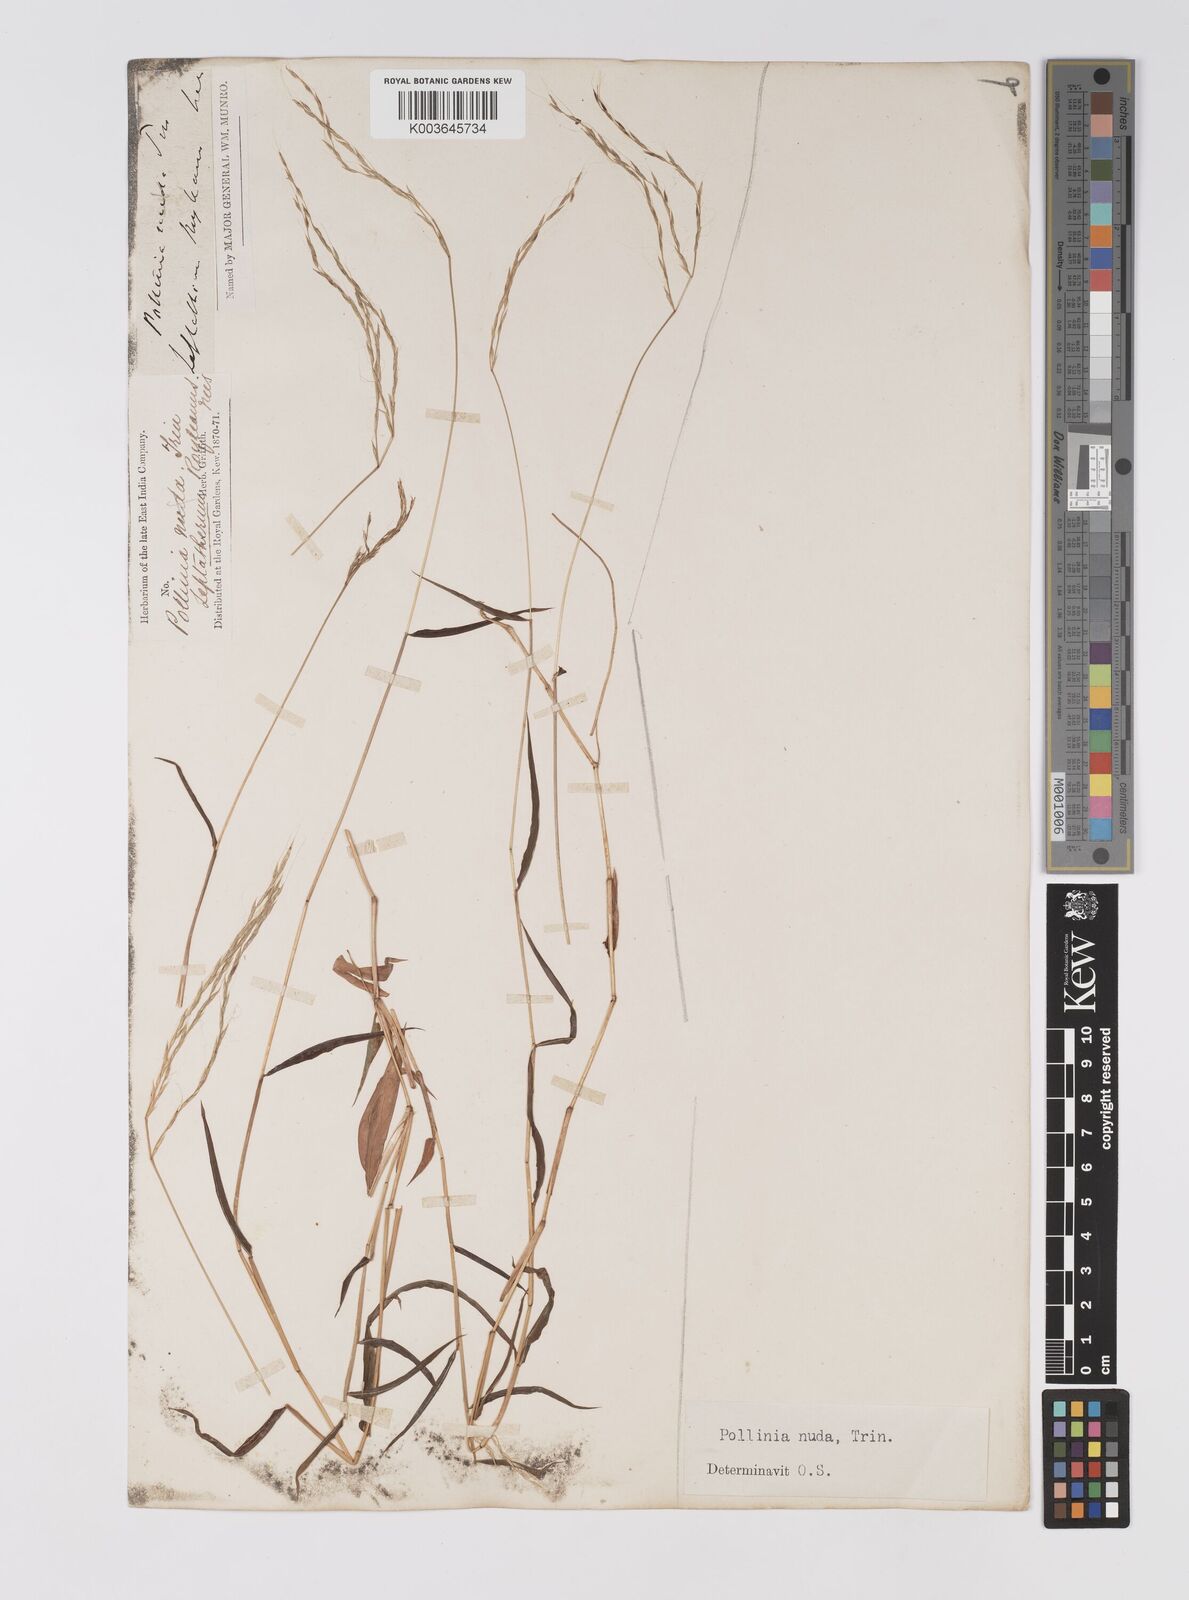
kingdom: Plantae
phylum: Tracheophyta
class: Liliopsida
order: Poales
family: Poaceae
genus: Microstegium
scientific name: Microstegium nudum
